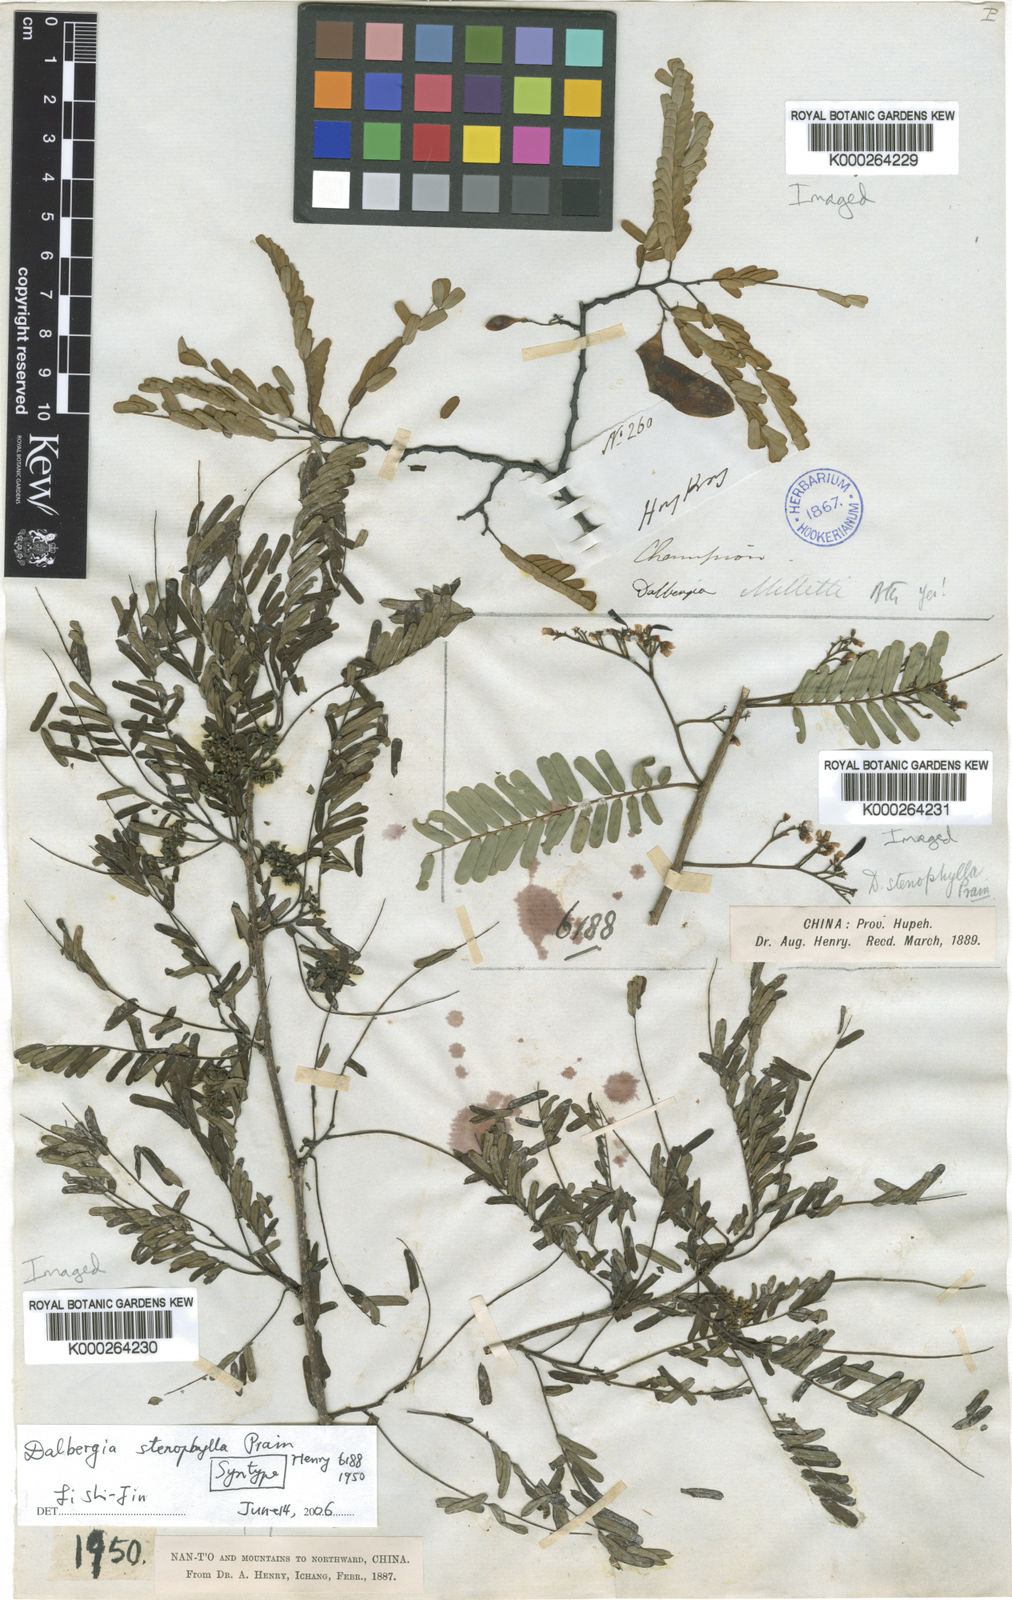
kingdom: Plantae
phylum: Tracheophyta
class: Magnoliopsida
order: Fabales
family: Fabaceae
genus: Dalbergia
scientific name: Dalbergia stenophylla
